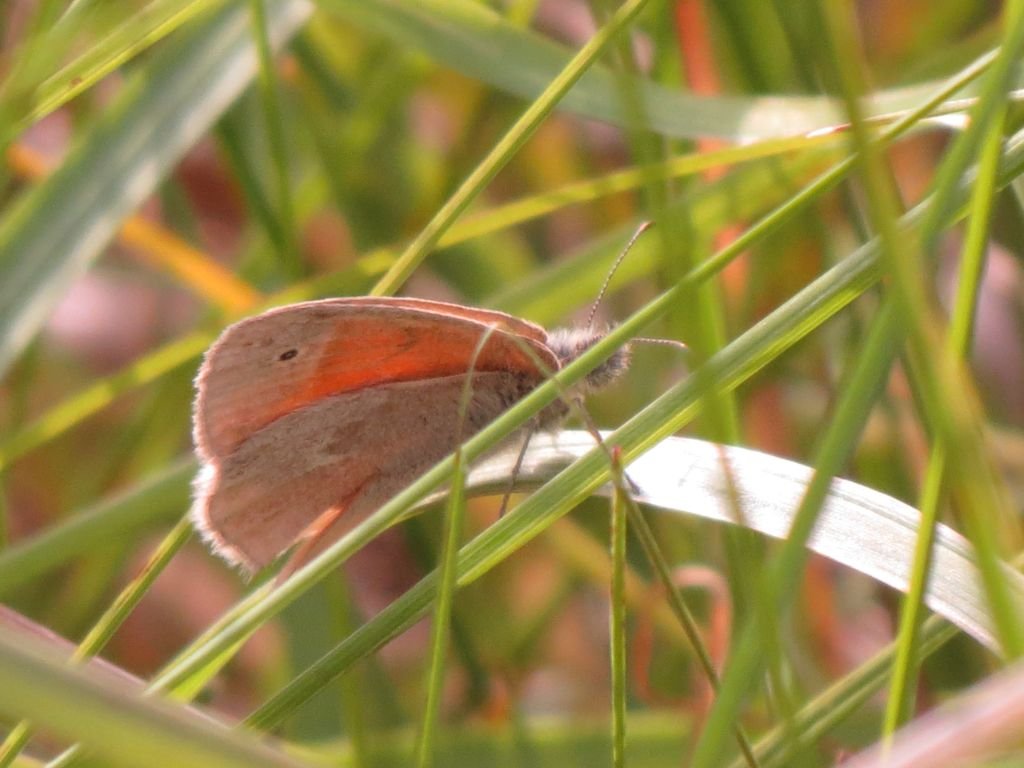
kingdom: Animalia
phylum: Arthropoda
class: Insecta
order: Lepidoptera
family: Nymphalidae
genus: Coenonympha
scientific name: Coenonympha tullia
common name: Large Heath
